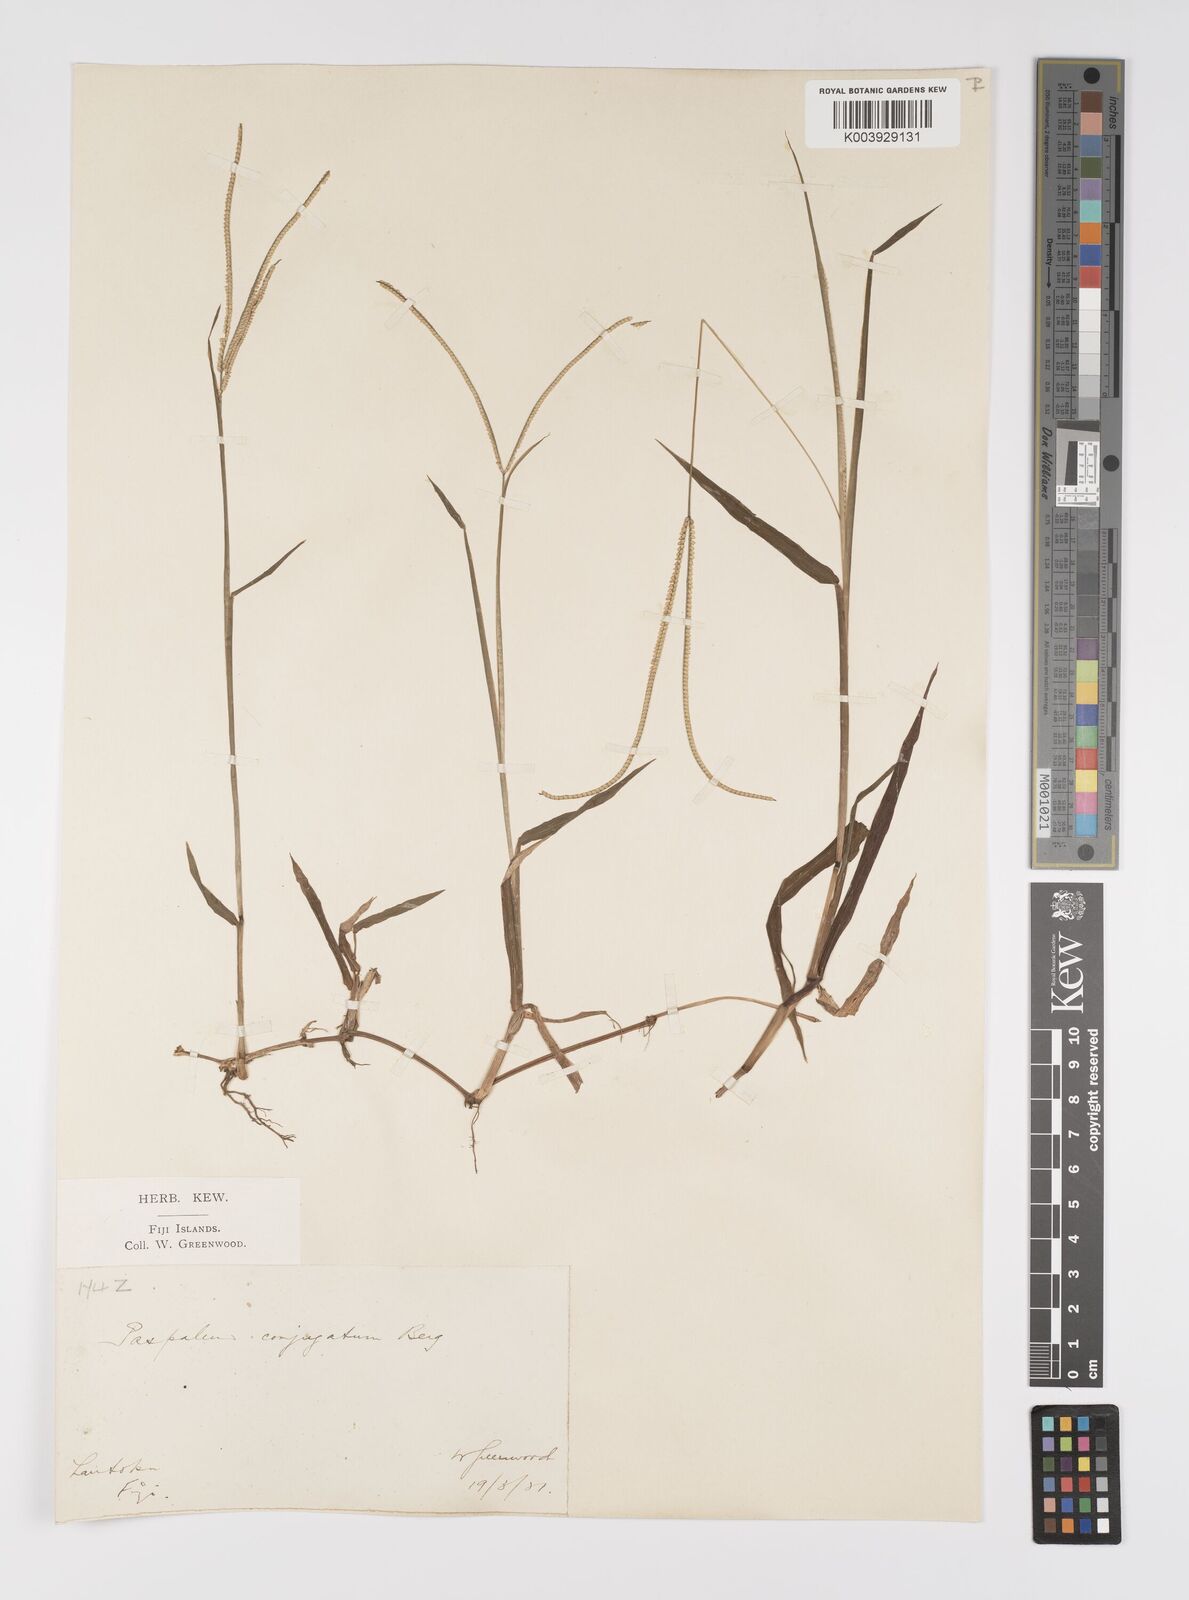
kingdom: Plantae
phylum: Tracheophyta
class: Liliopsida
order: Poales
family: Poaceae
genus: Paspalum
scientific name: Paspalum conjugatum
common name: Hilograss
